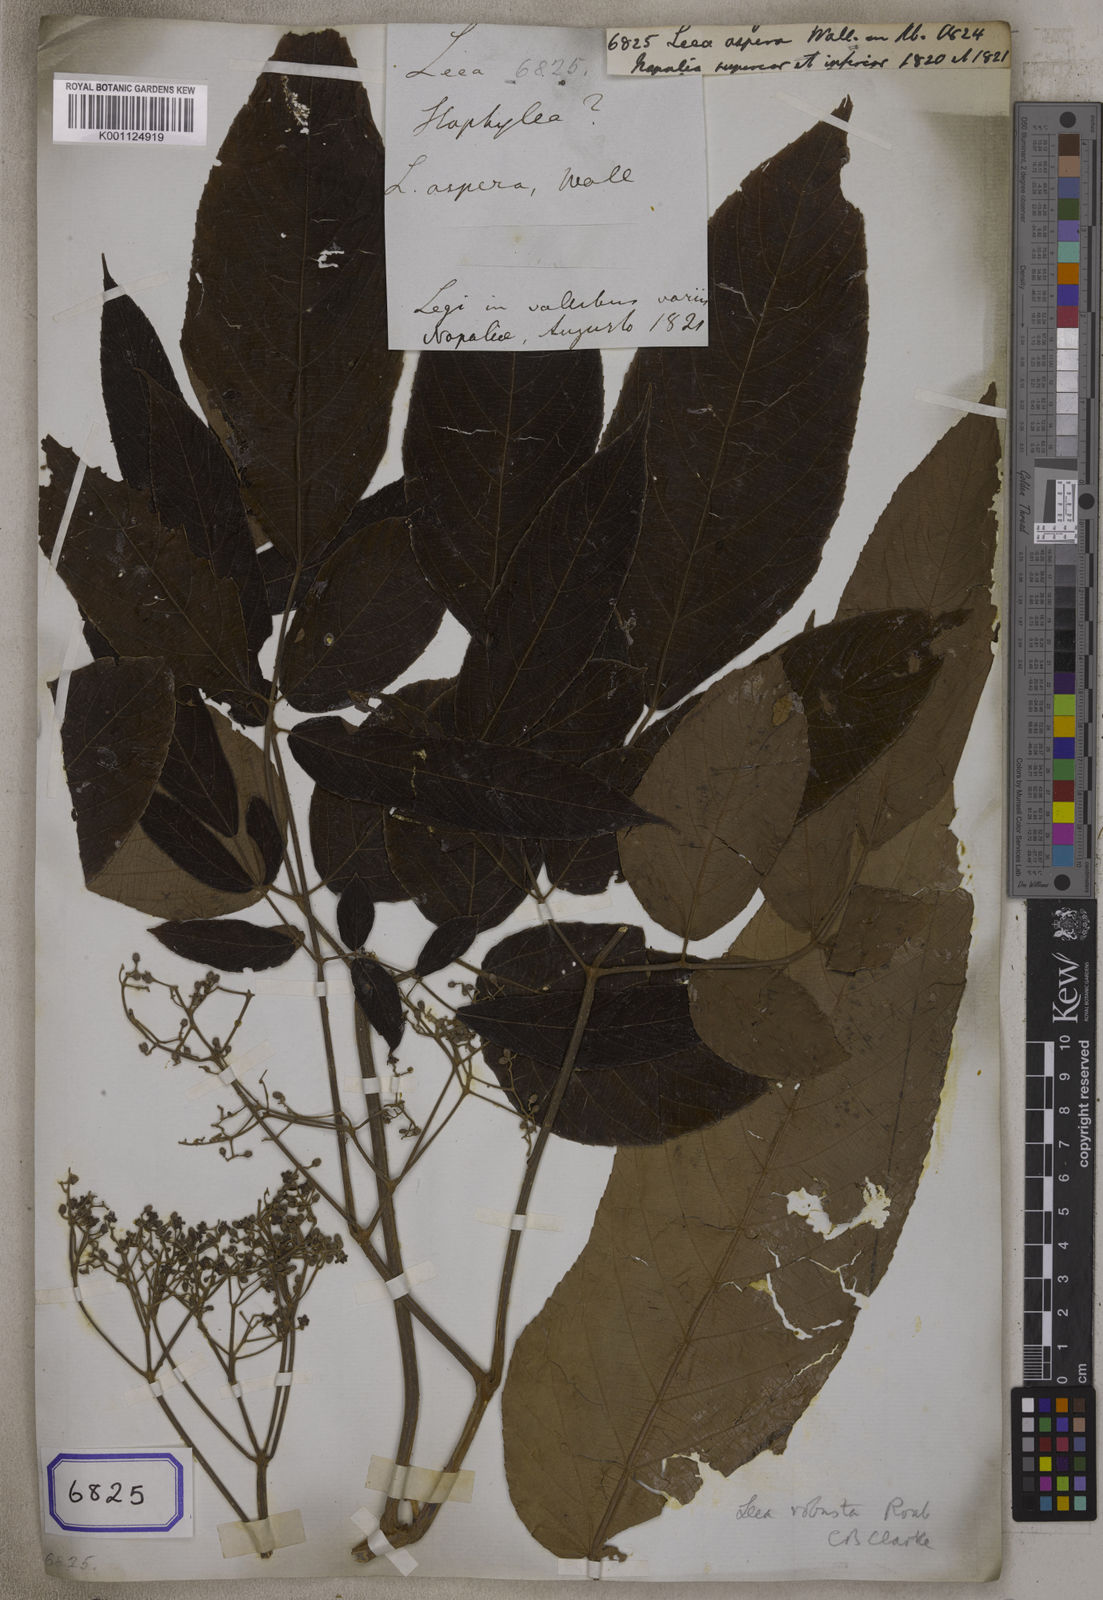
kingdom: Plantae
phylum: Tracheophyta
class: Magnoliopsida
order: Vitales
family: Vitaceae
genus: Leea
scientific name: Leea
